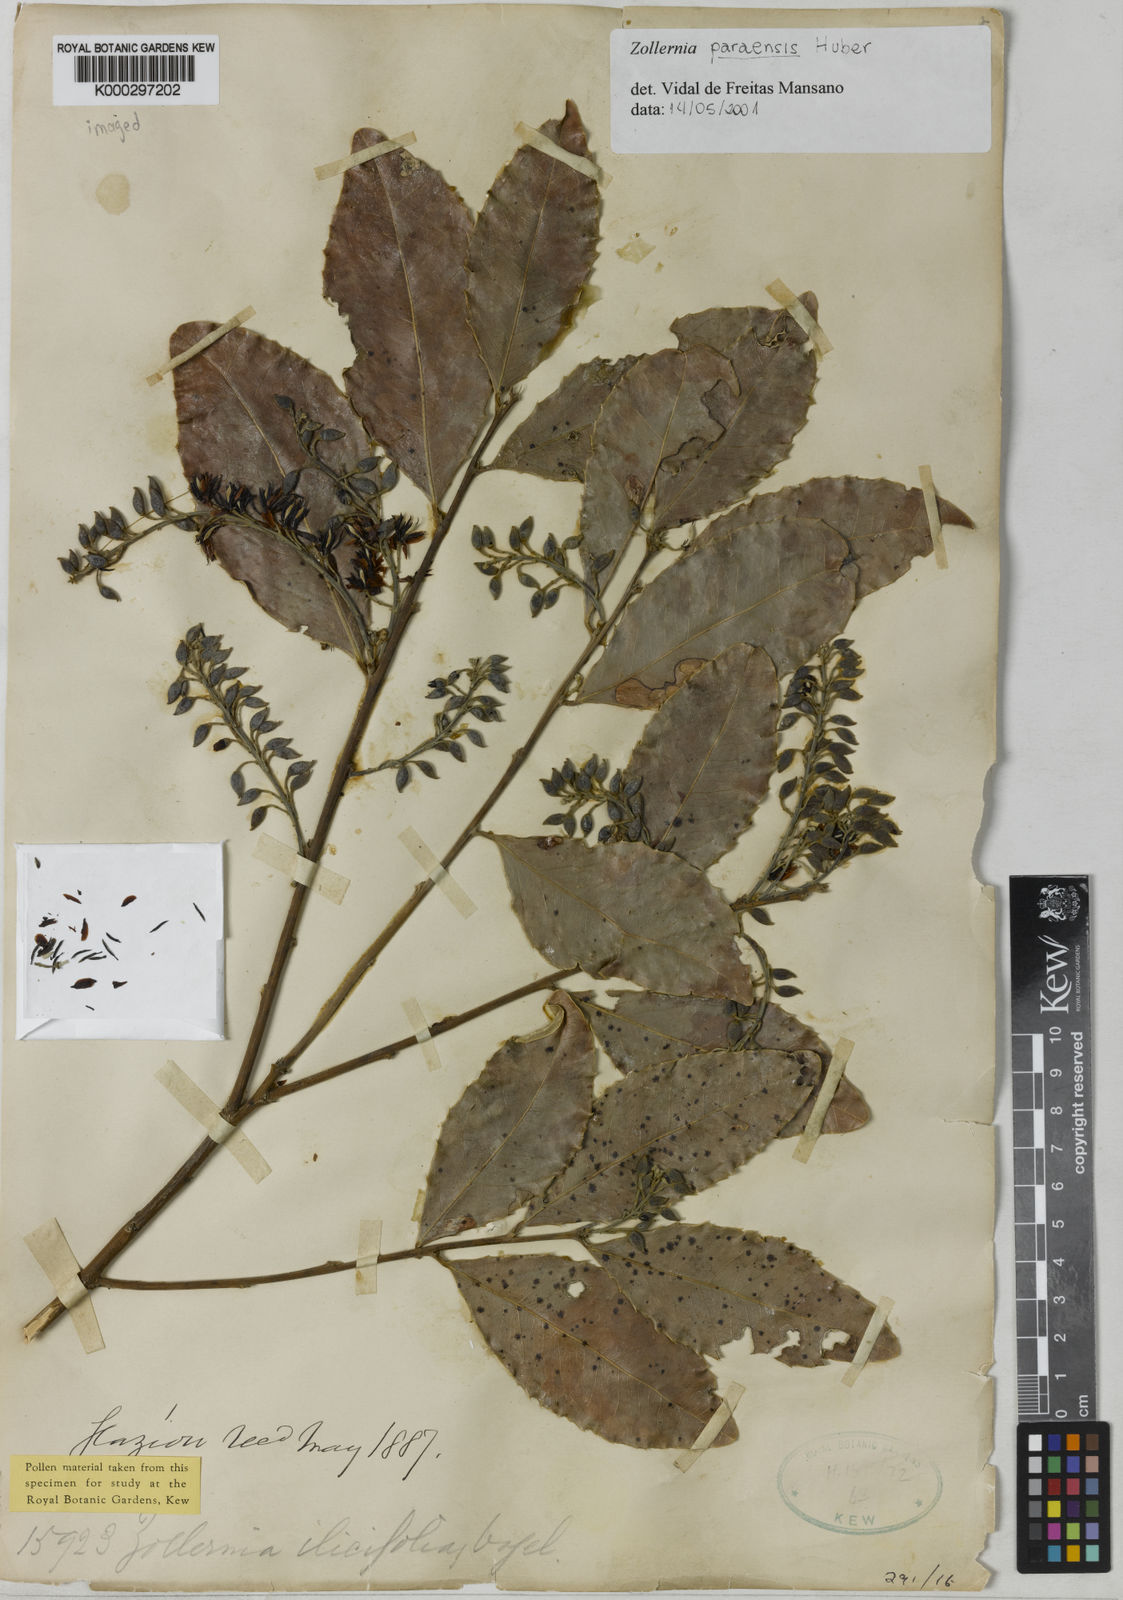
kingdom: Plantae
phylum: Tracheophyta
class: Magnoliopsida
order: Fabales
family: Fabaceae
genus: Zollernia
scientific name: Zollernia paraensis
